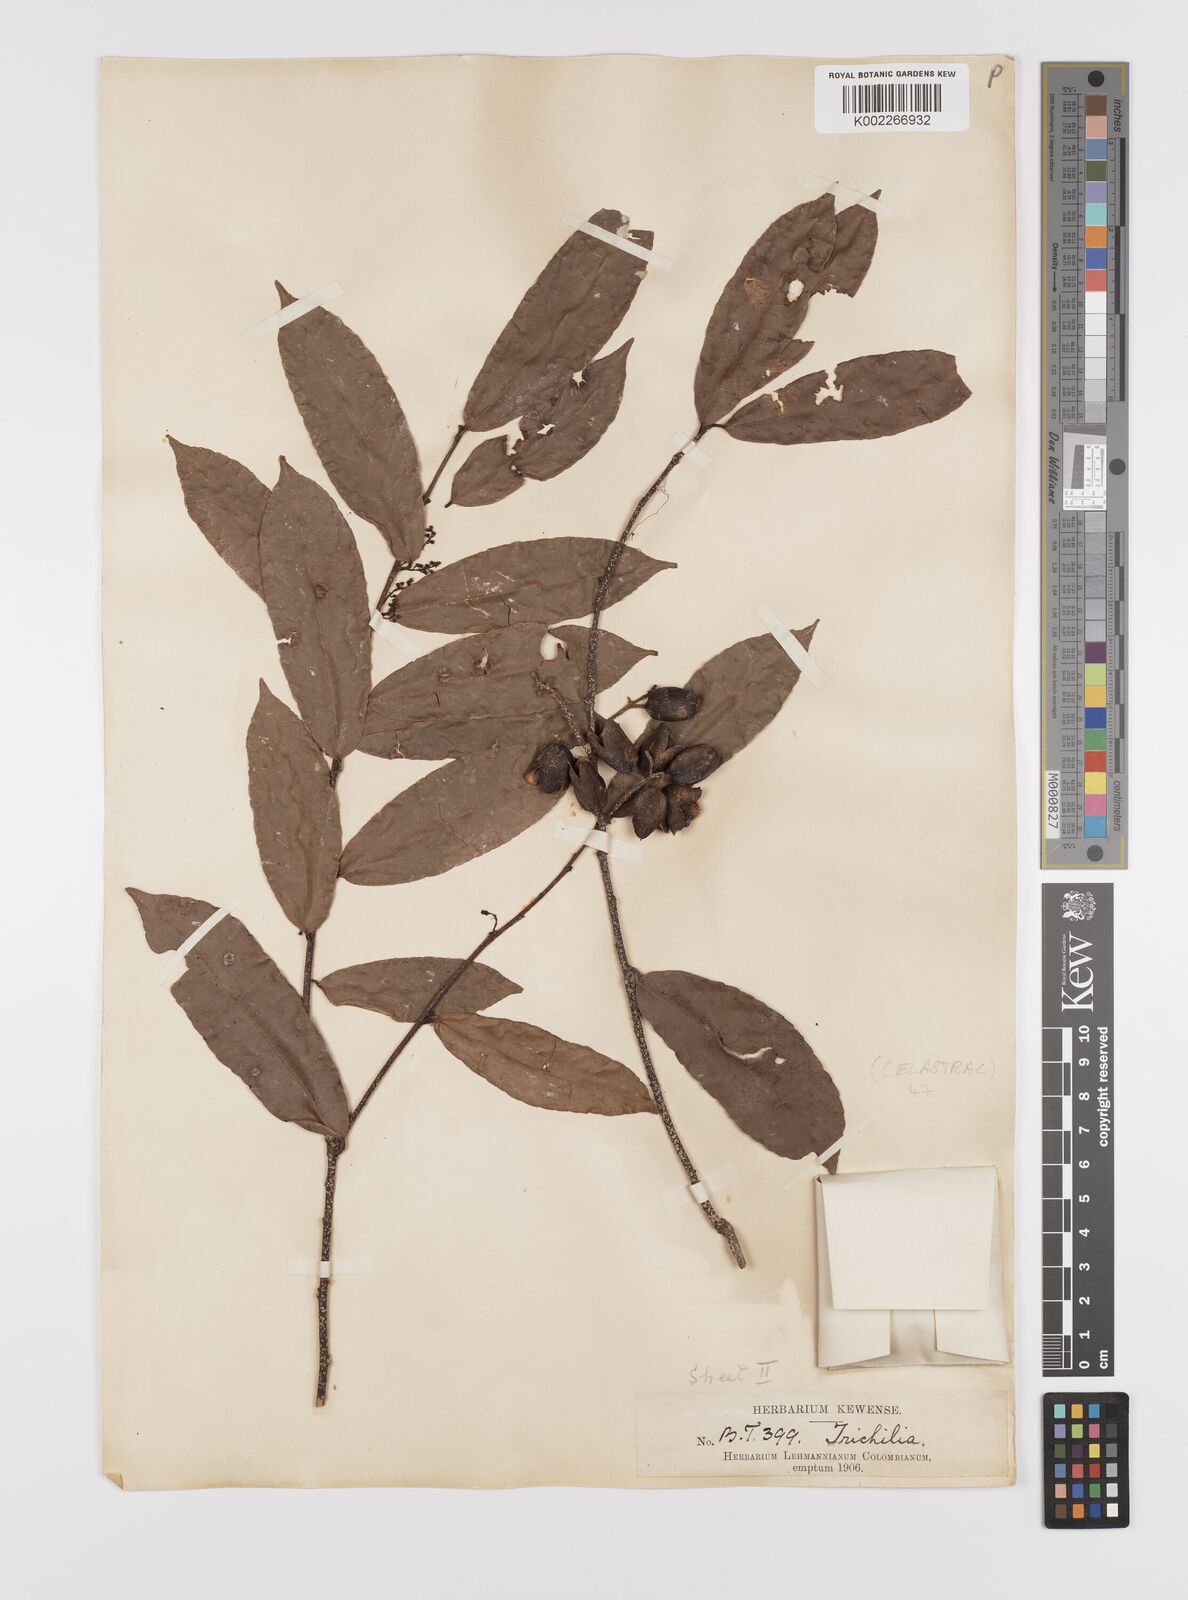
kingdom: Plantae
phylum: Tracheophyta
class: Magnoliopsida
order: Celastrales
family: Celastraceae
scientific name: Celastraceae
